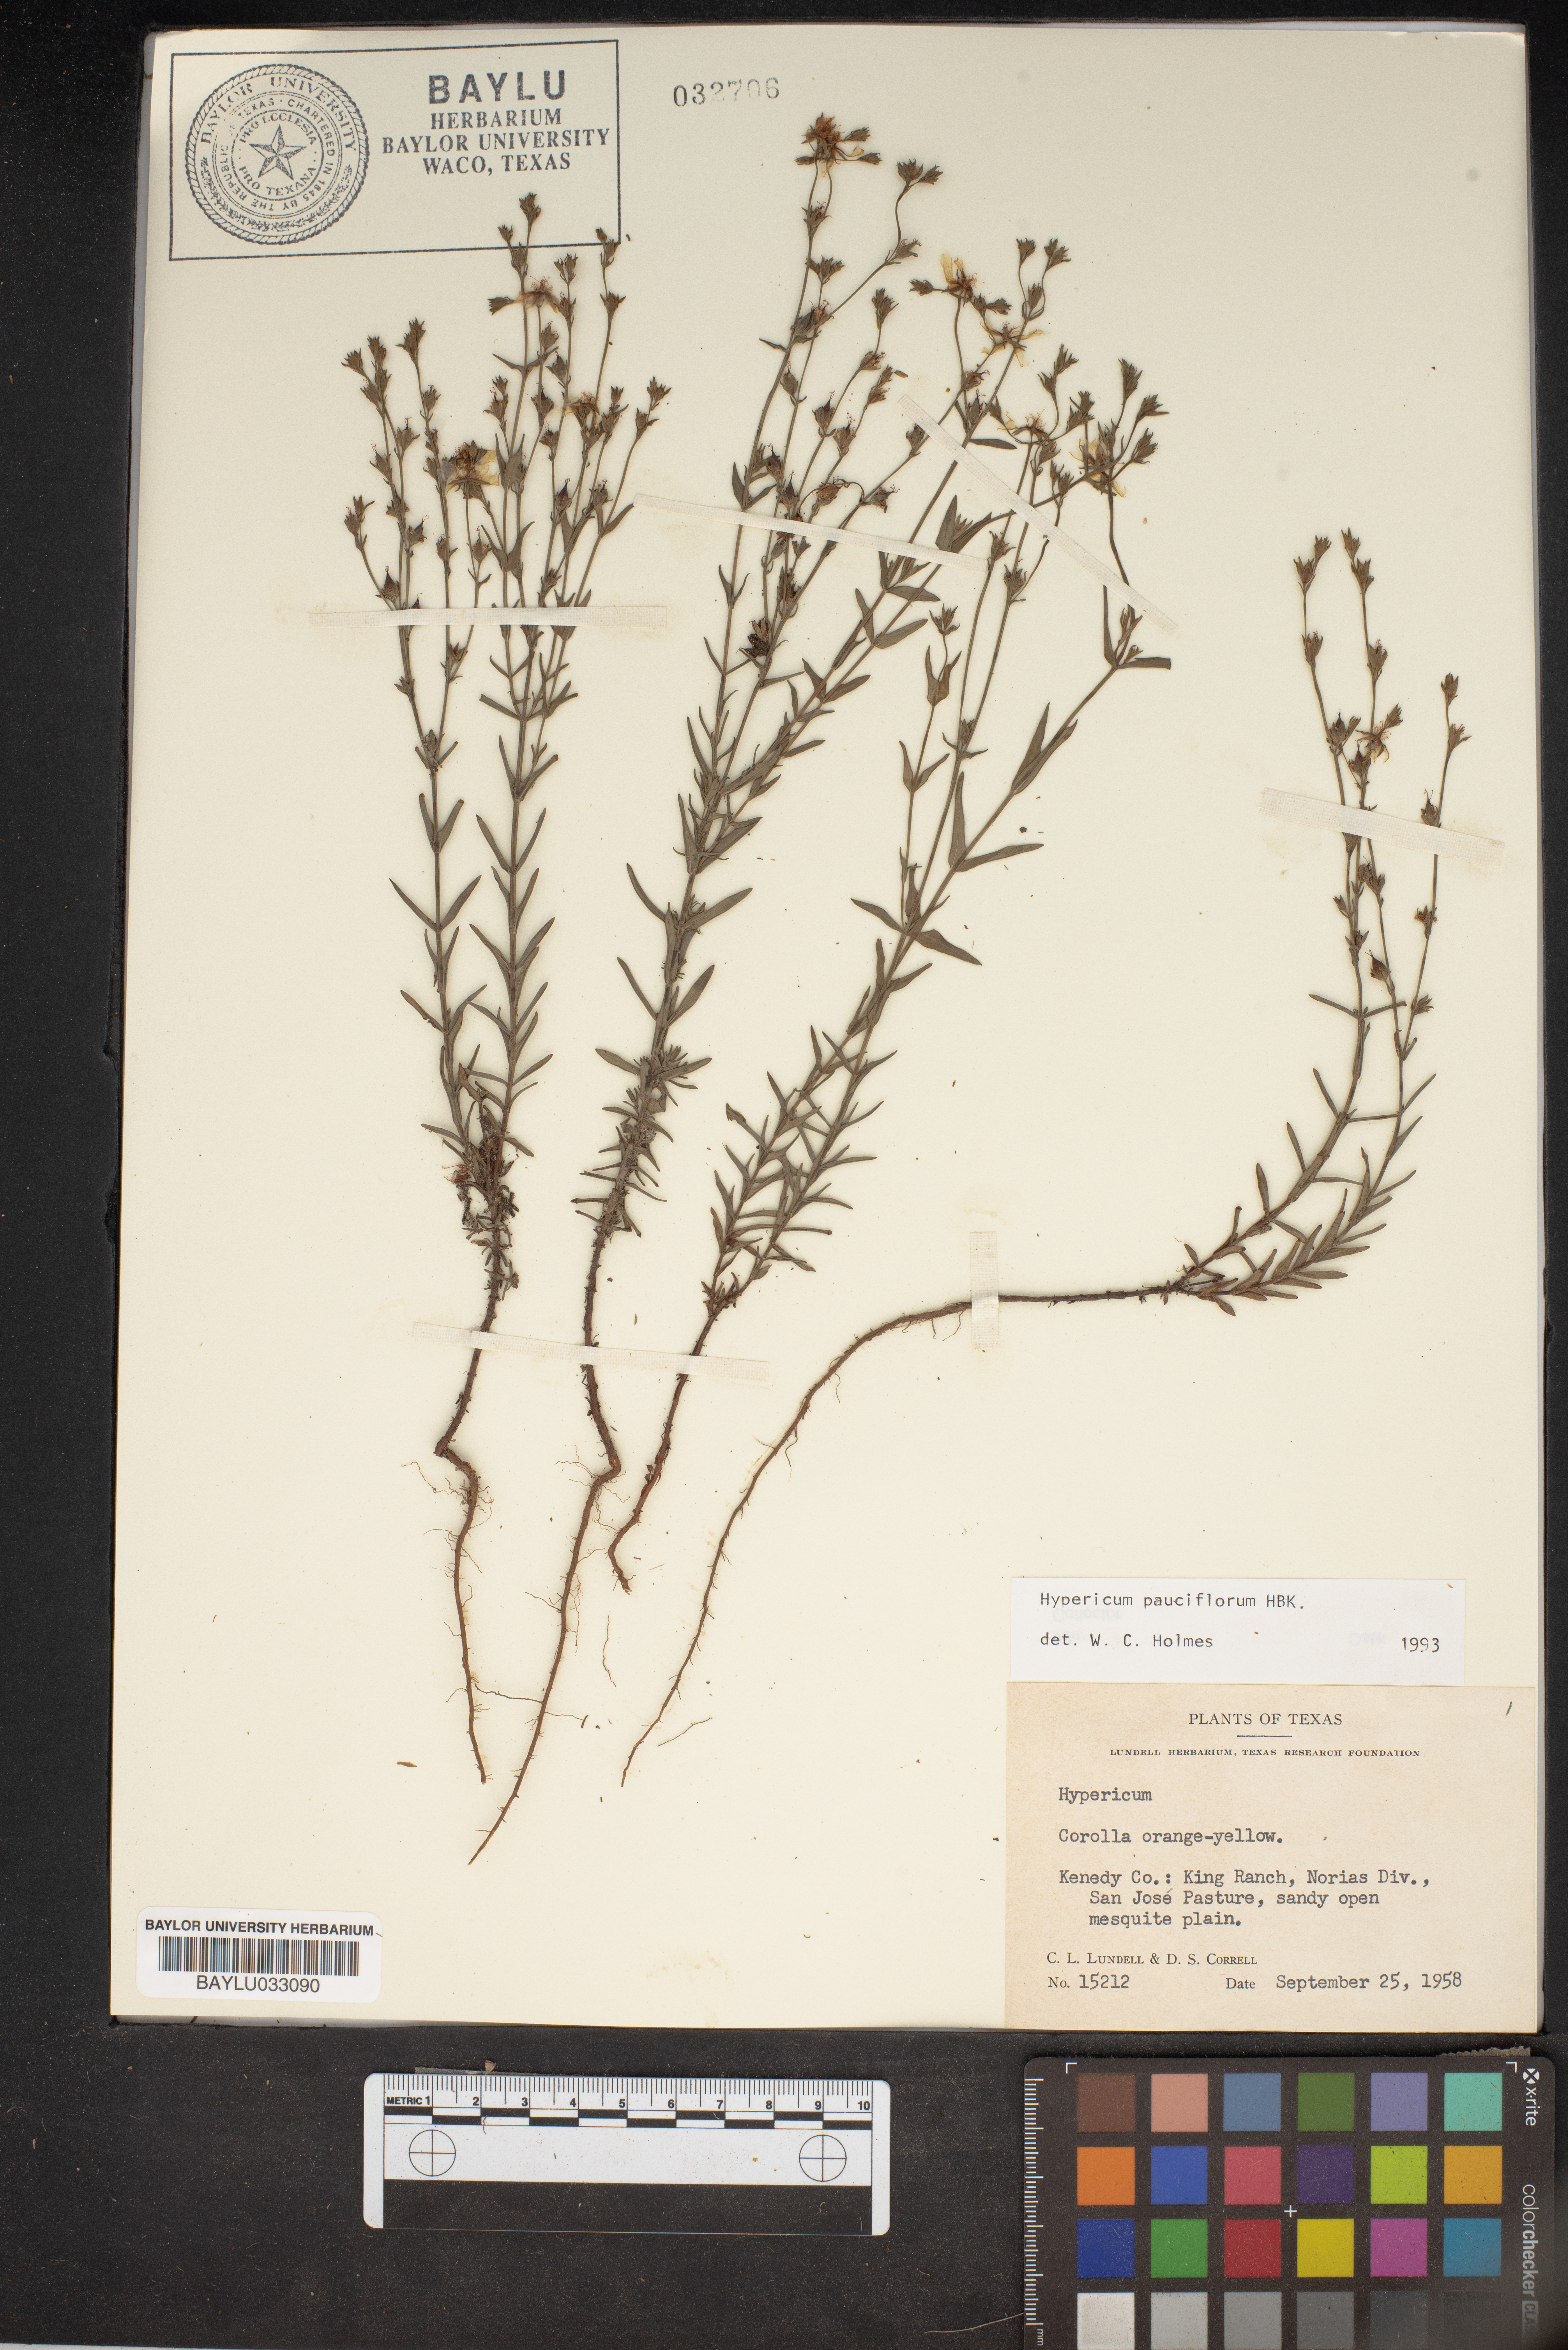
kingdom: Plantae
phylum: Tracheophyta
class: Magnoliopsida
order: Malpighiales
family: Hypericaceae
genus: Hypericum
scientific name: Hypericum pauciflorum
